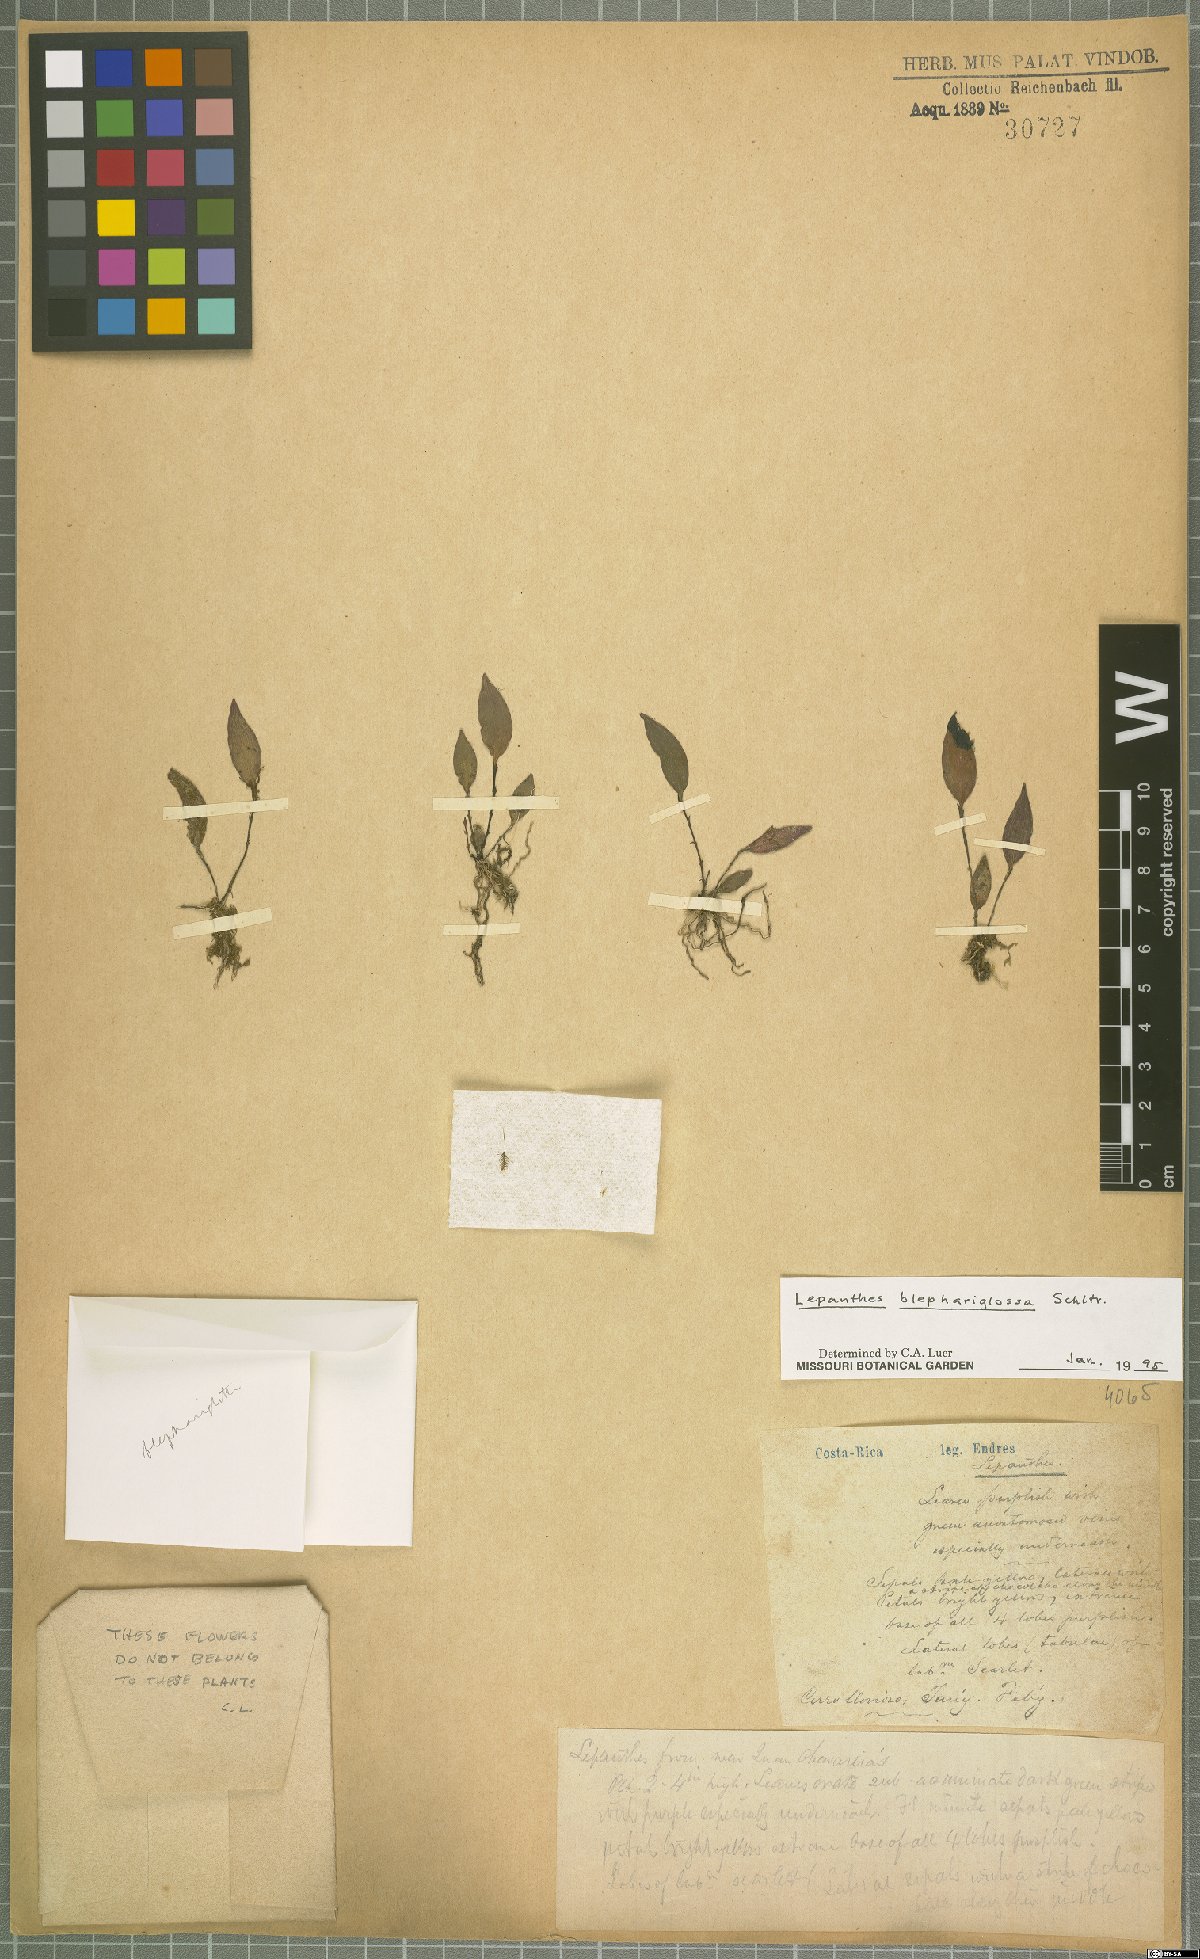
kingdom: Plantae
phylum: Tracheophyta
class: Liliopsida
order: Asparagales
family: Orchidaceae
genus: Lepanthes
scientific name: Lepanthes blephariglossa
